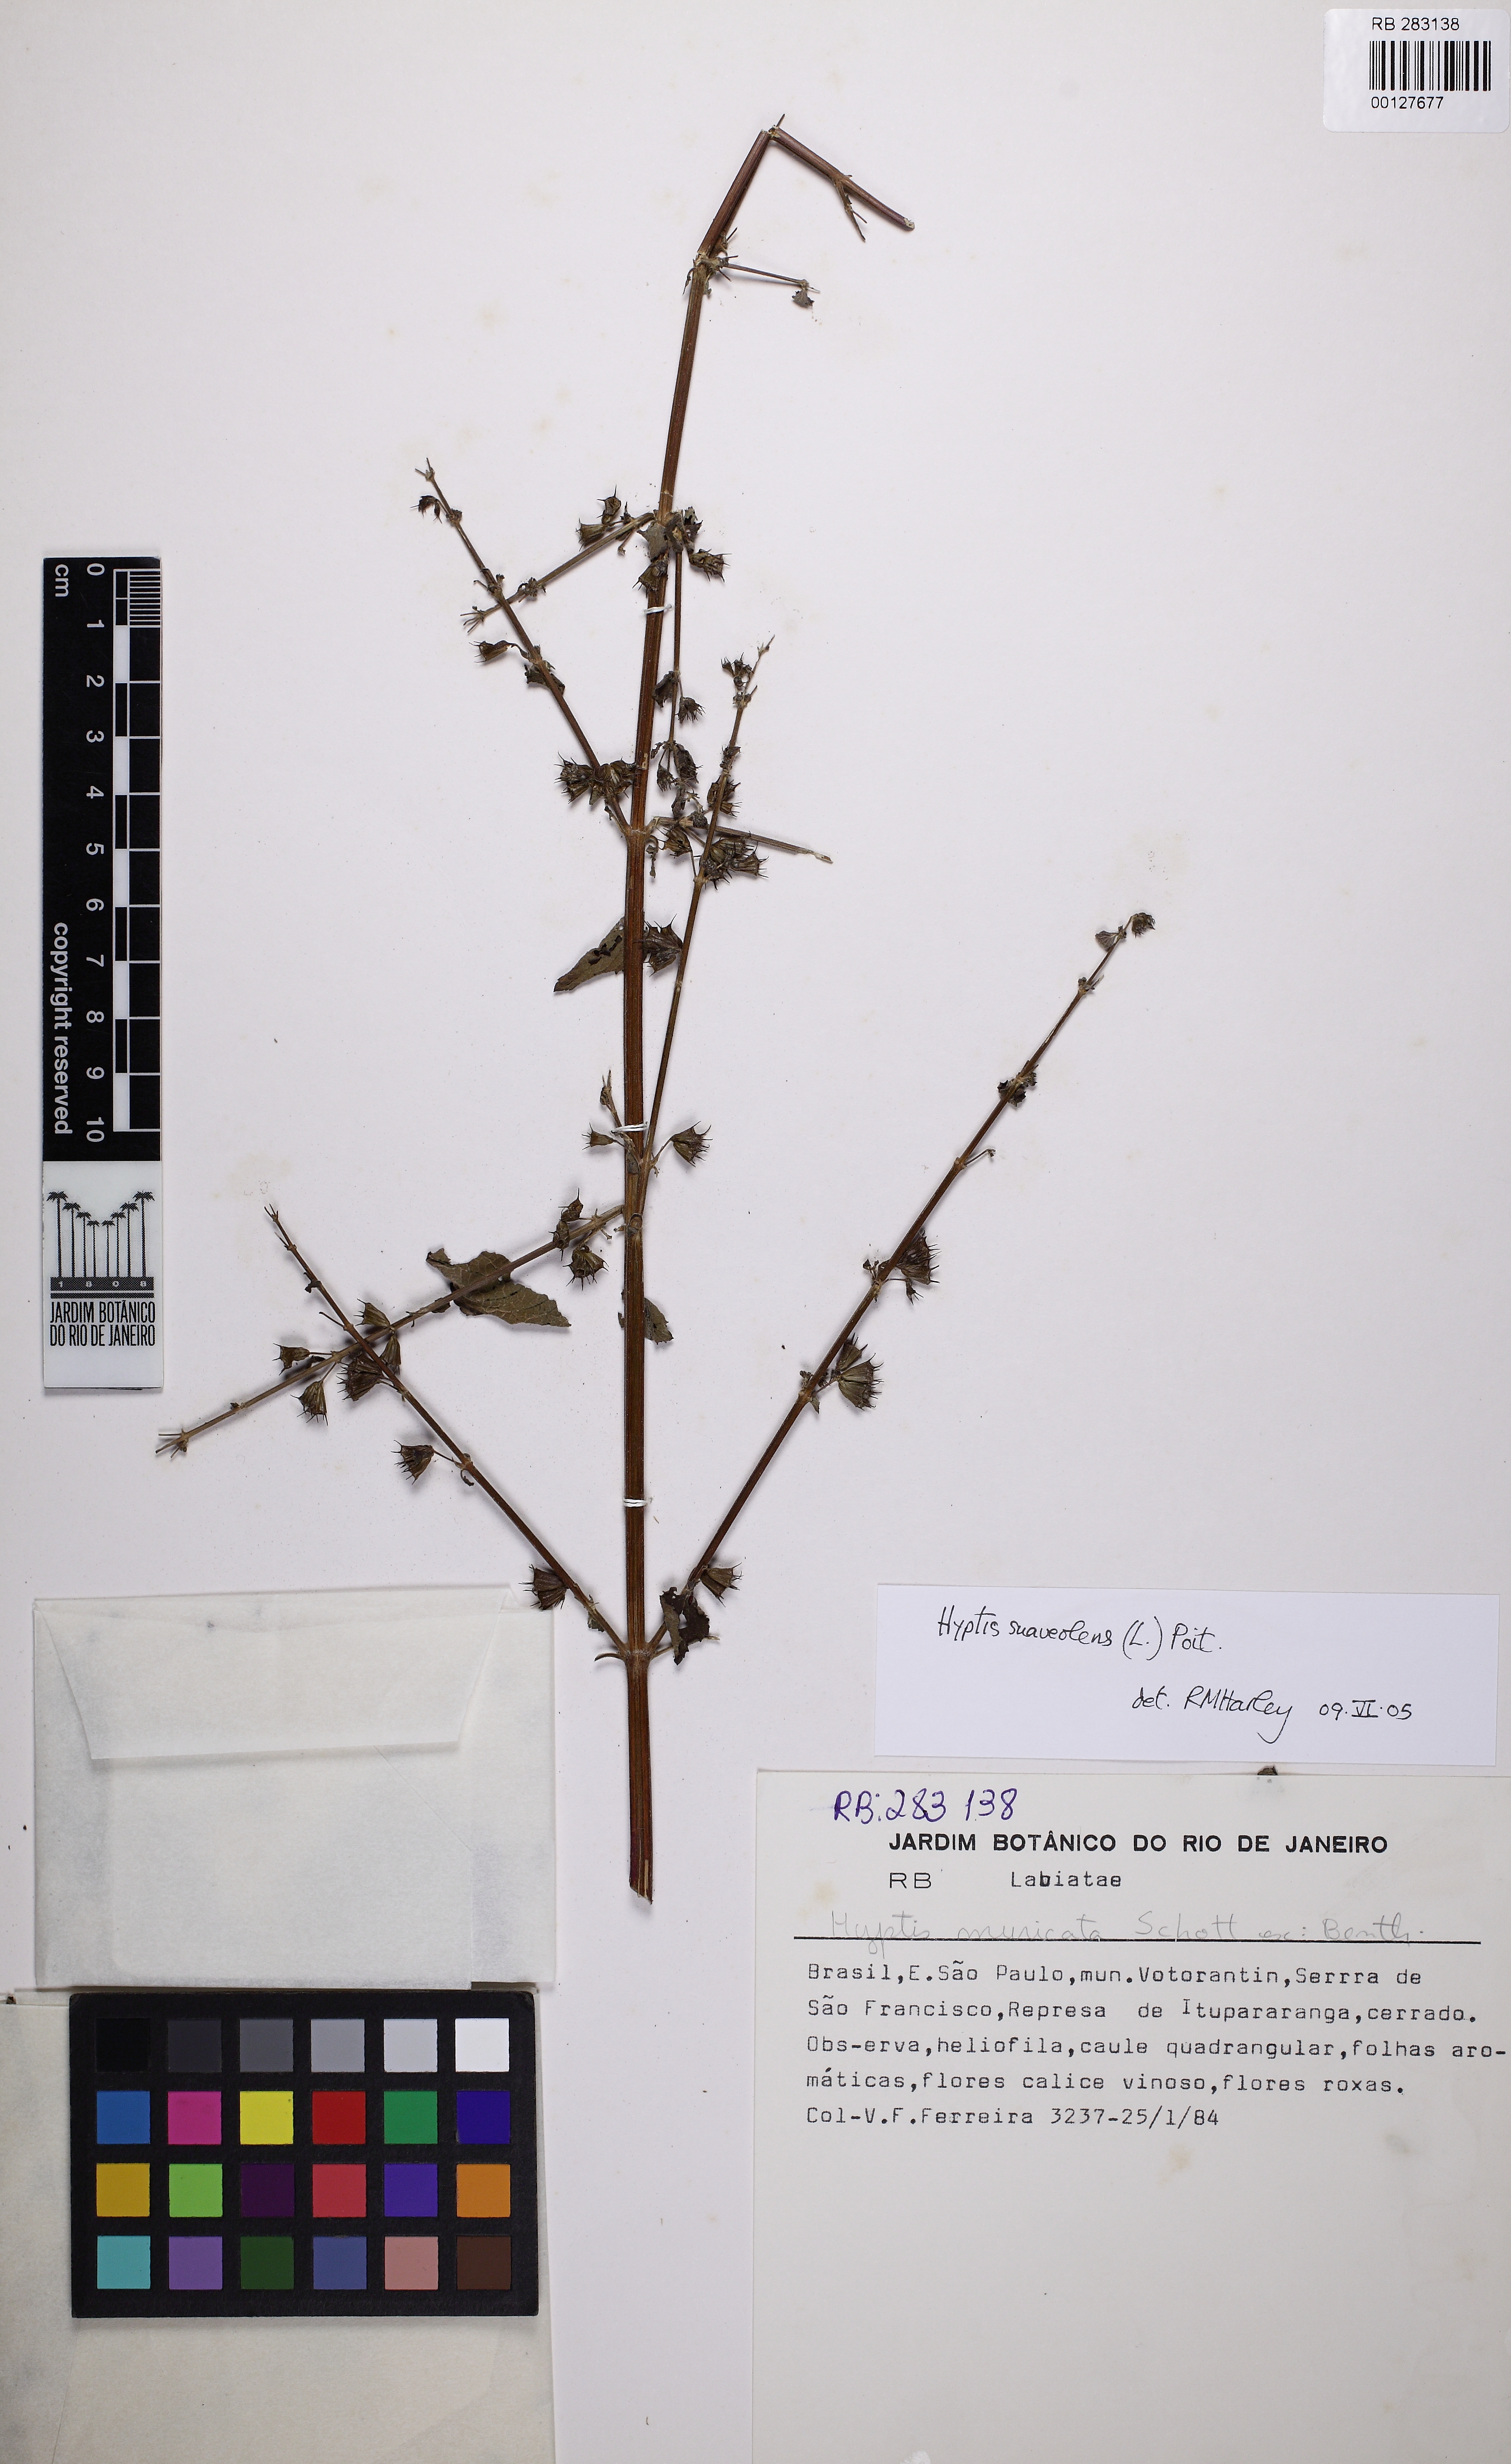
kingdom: Plantae
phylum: Tracheophyta
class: Magnoliopsida
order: Lamiales
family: Lamiaceae
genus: Mesosphaerum
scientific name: Mesosphaerum suaveolens
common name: Pignut
